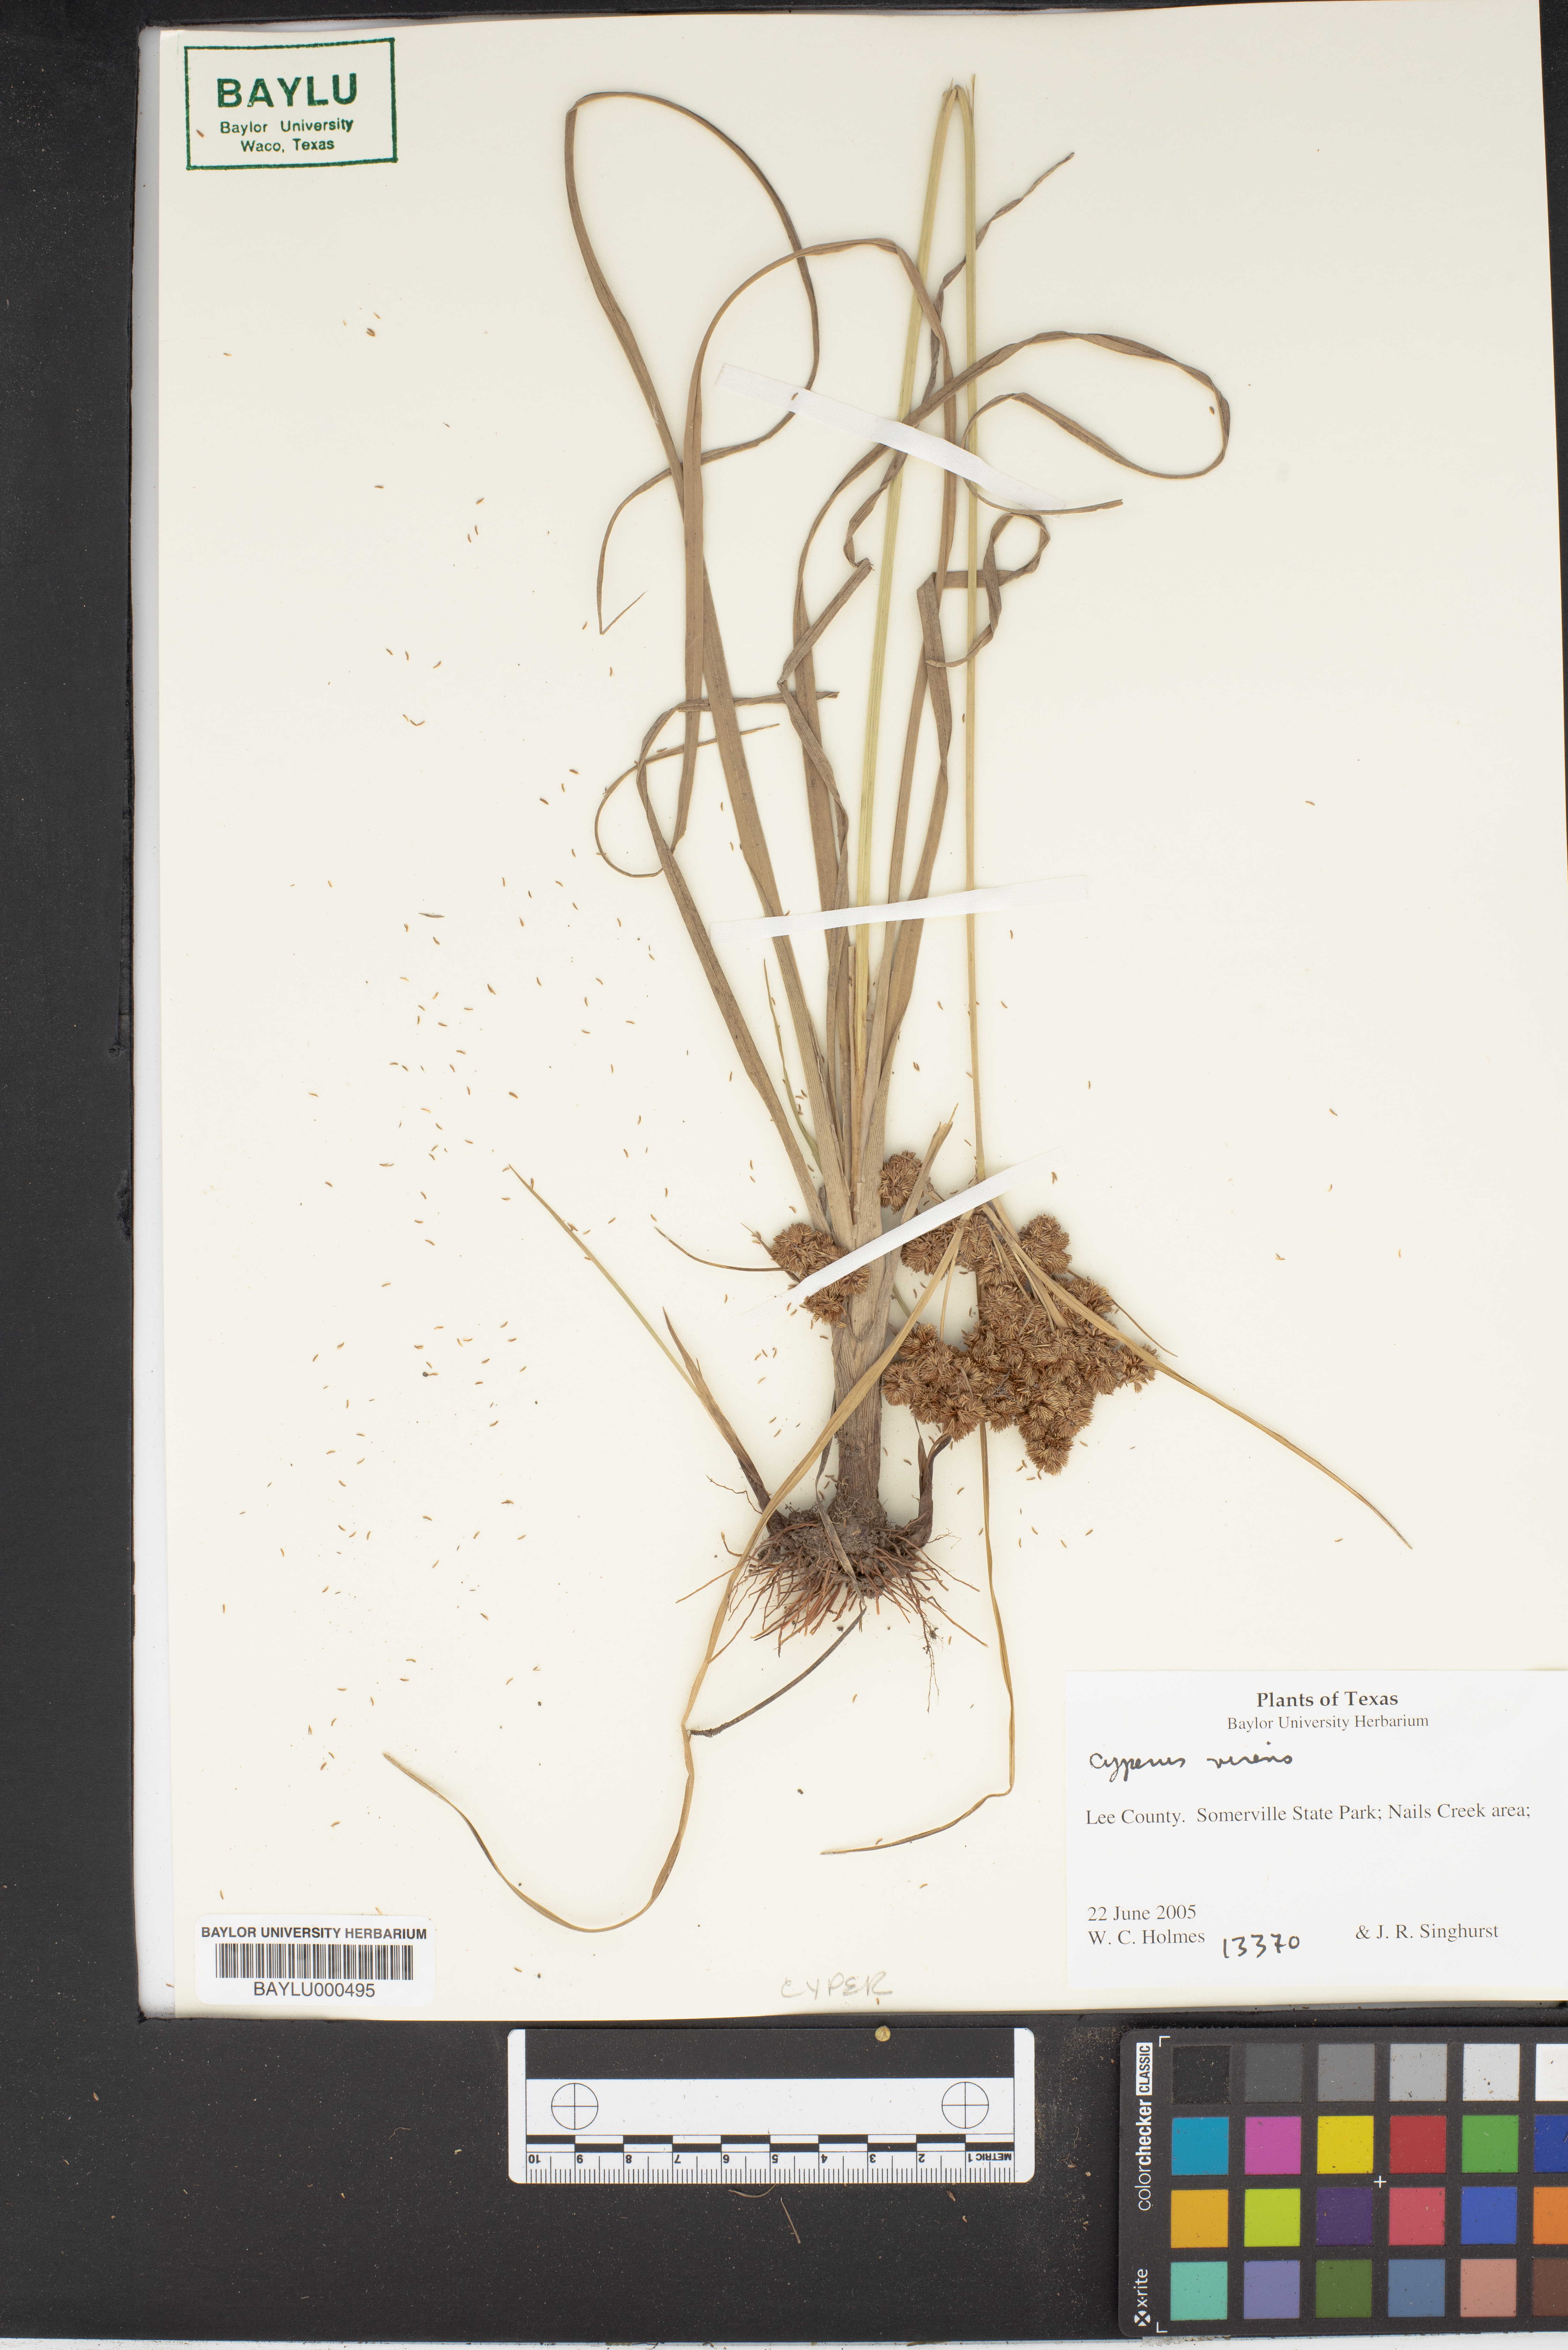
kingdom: Plantae
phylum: Tracheophyta
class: Liliopsida
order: Poales
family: Cyperaceae
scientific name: Cyperaceae
